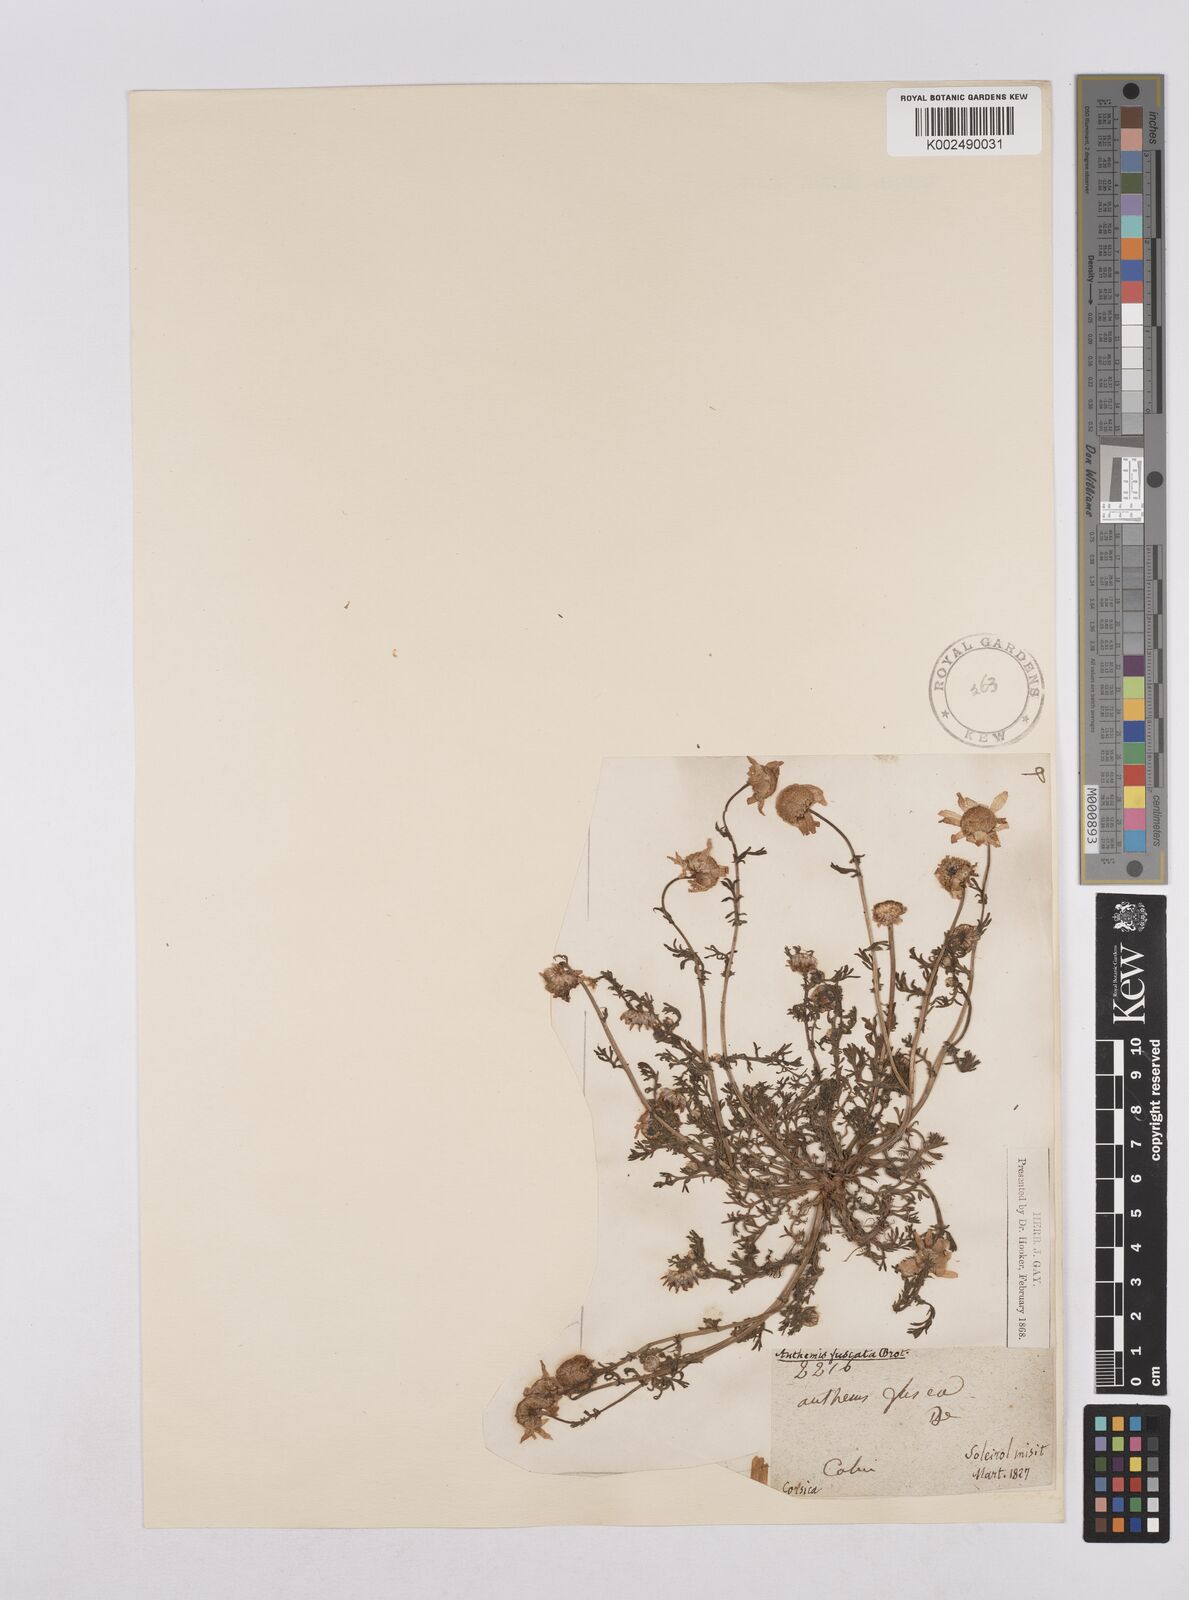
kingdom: Plantae
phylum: Tracheophyta
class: Magnoliopsida
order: Asterales
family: Asteraceae
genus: Chamaemelum
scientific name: Chamaemelum fuscatum
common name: Chamomile
